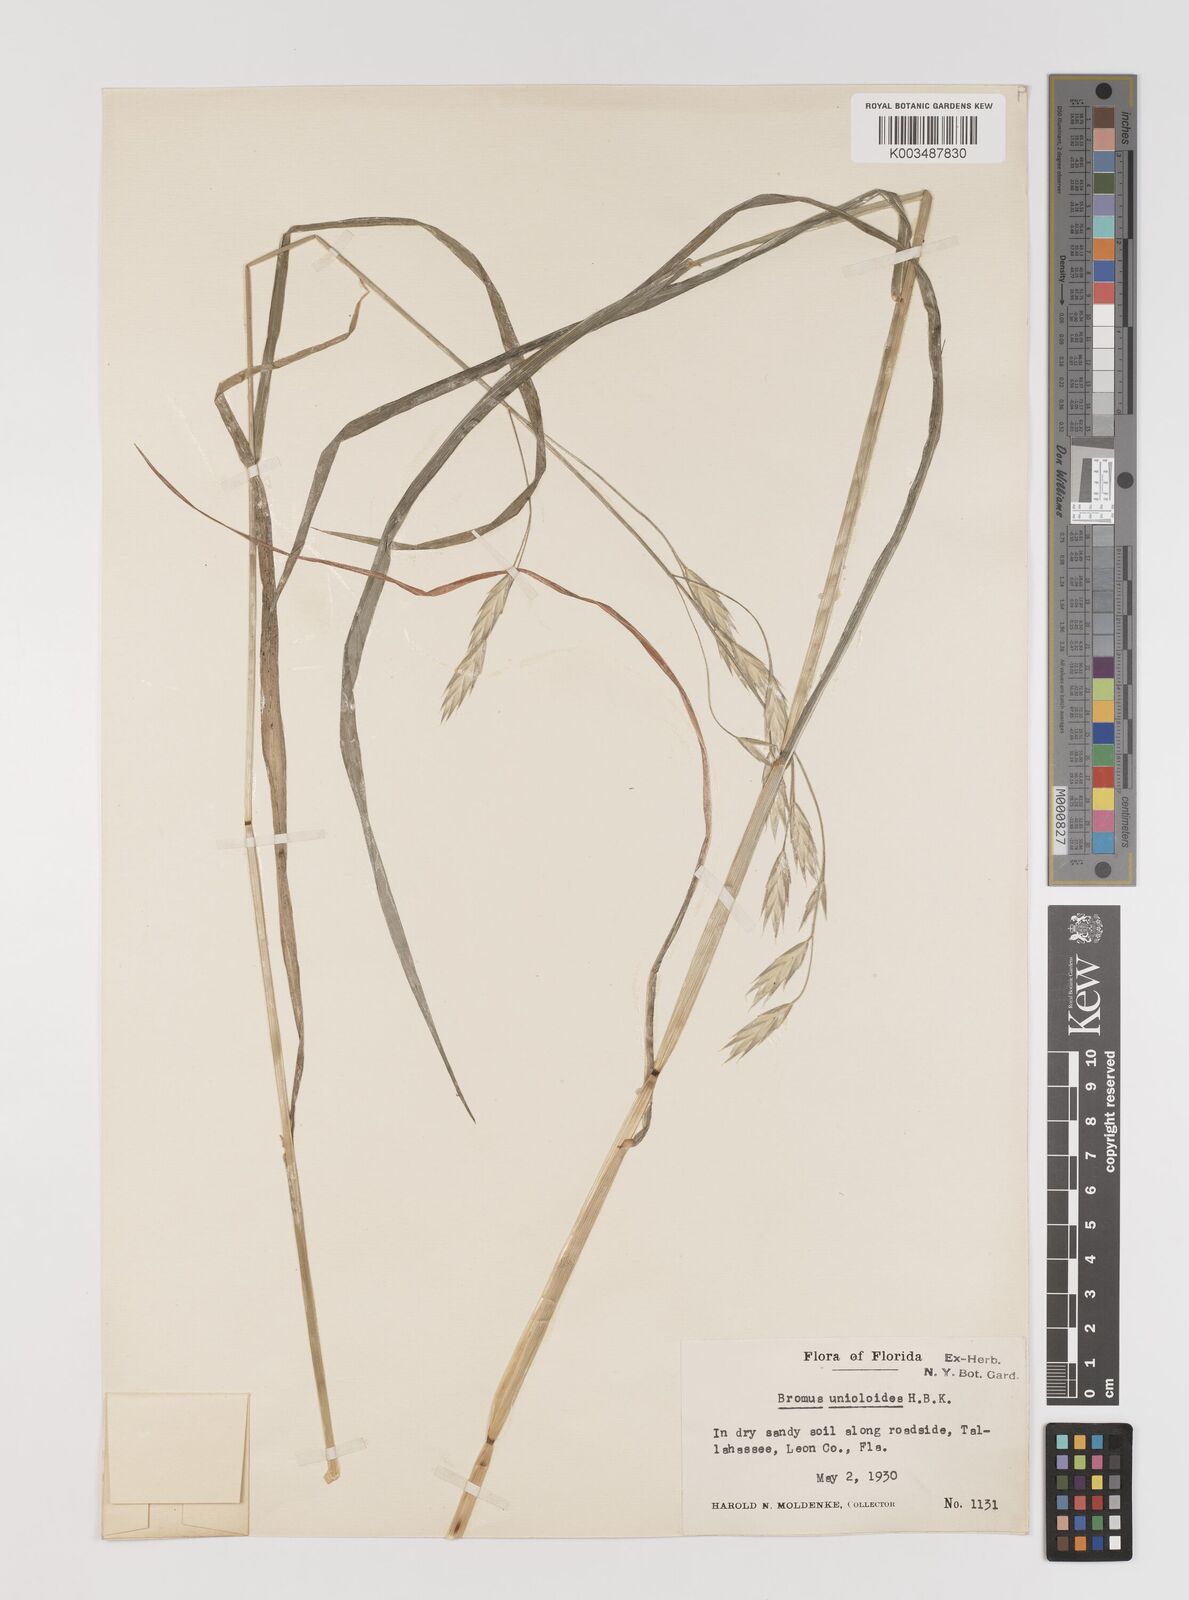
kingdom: Plantae
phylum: Tracheophyta
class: Liliopsida
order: Poales
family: Poaceae
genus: Bromus
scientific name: Bromus catharticus
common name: Rescuegrass
